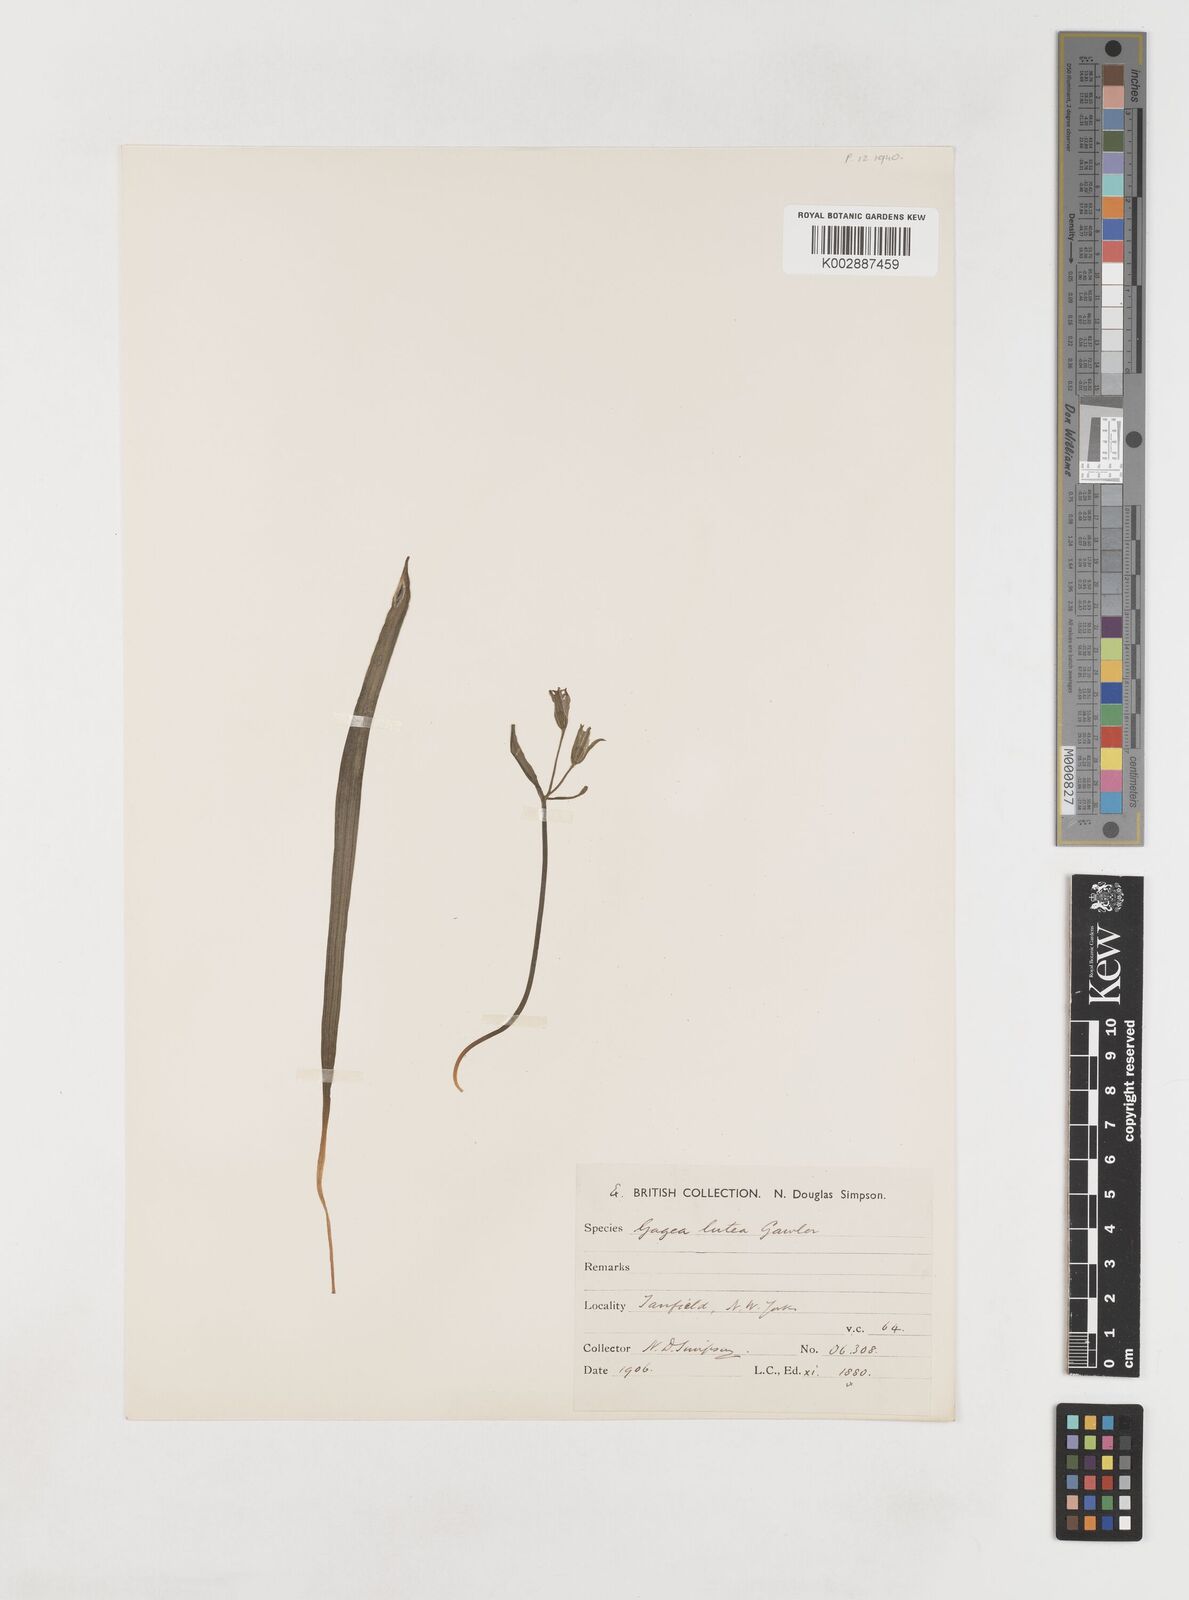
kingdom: Plantae
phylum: Tracheophyta
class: Liliopsida
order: Liliales
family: Liliaceae
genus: Gagea
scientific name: Gagea lutea
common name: Yellow star-of-bethlehem
